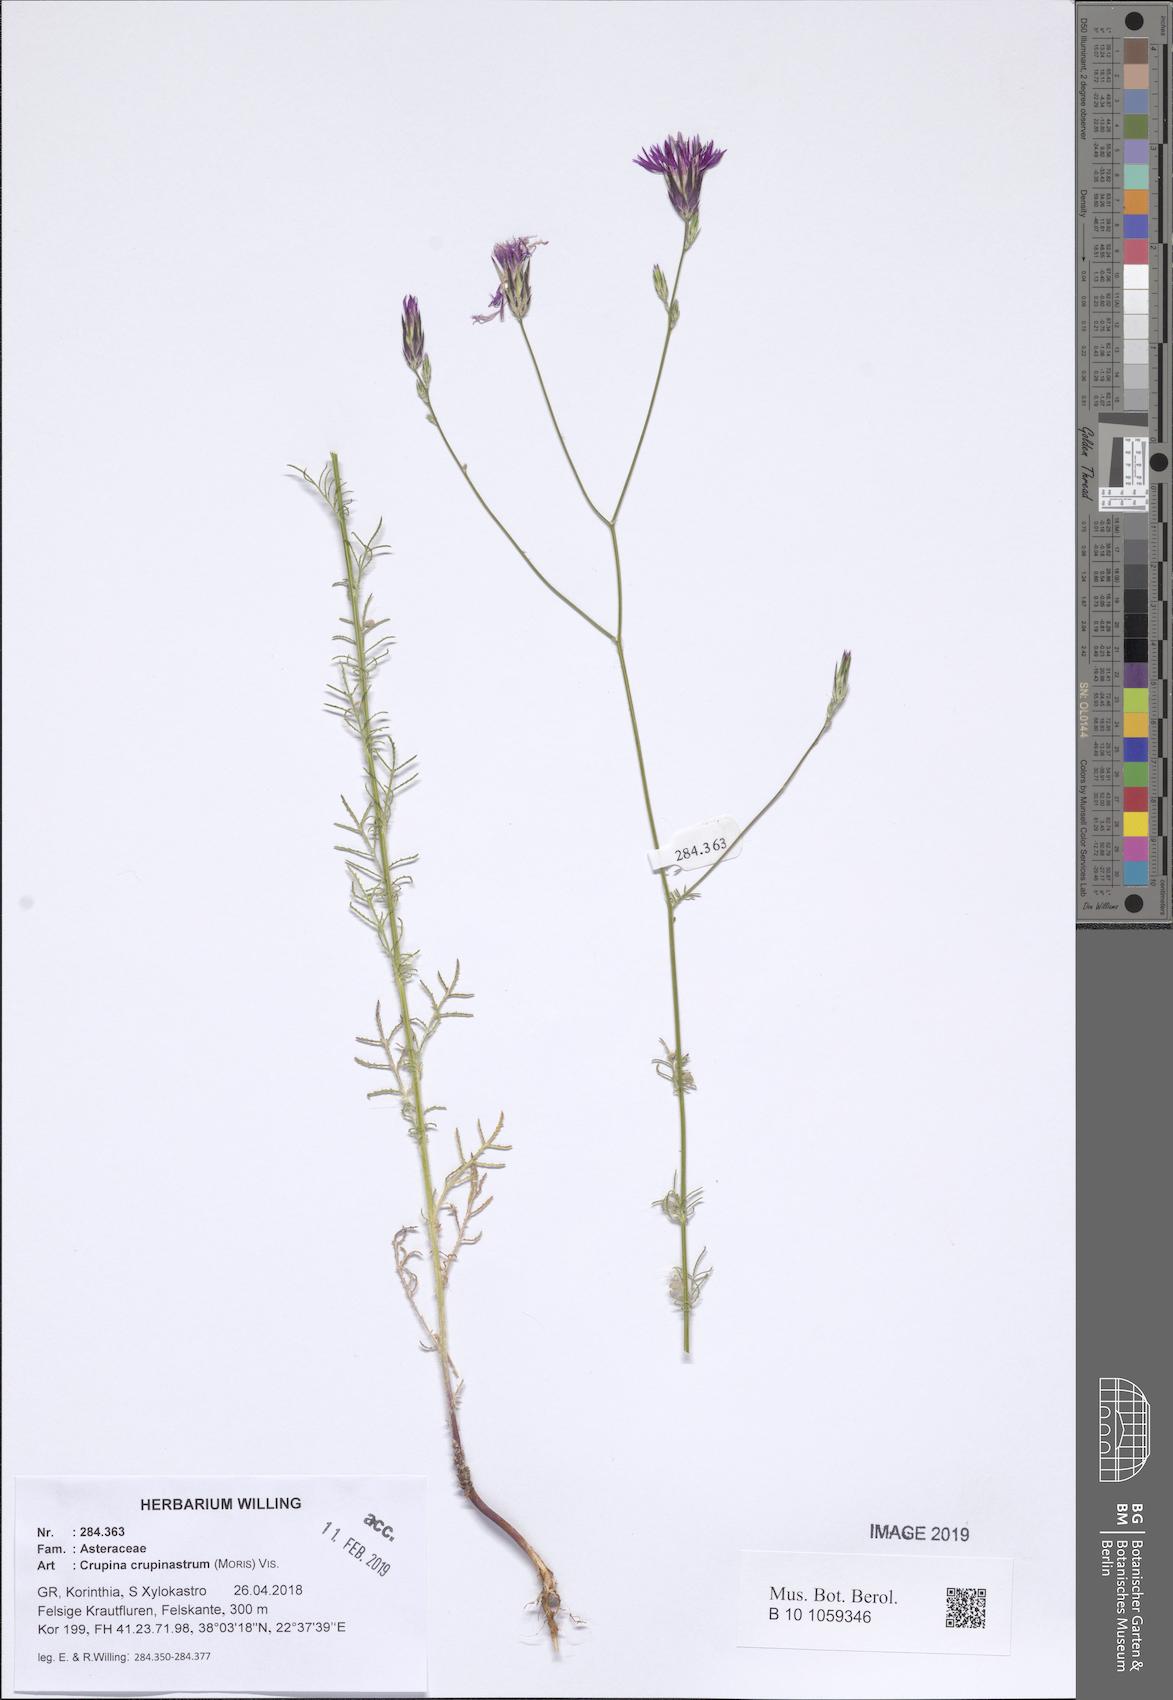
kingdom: Plantae
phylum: Tracheophyta
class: Magnoliopsida
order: Asterales
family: Asteraceae
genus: Crupina
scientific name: Crupina crupinastrum
